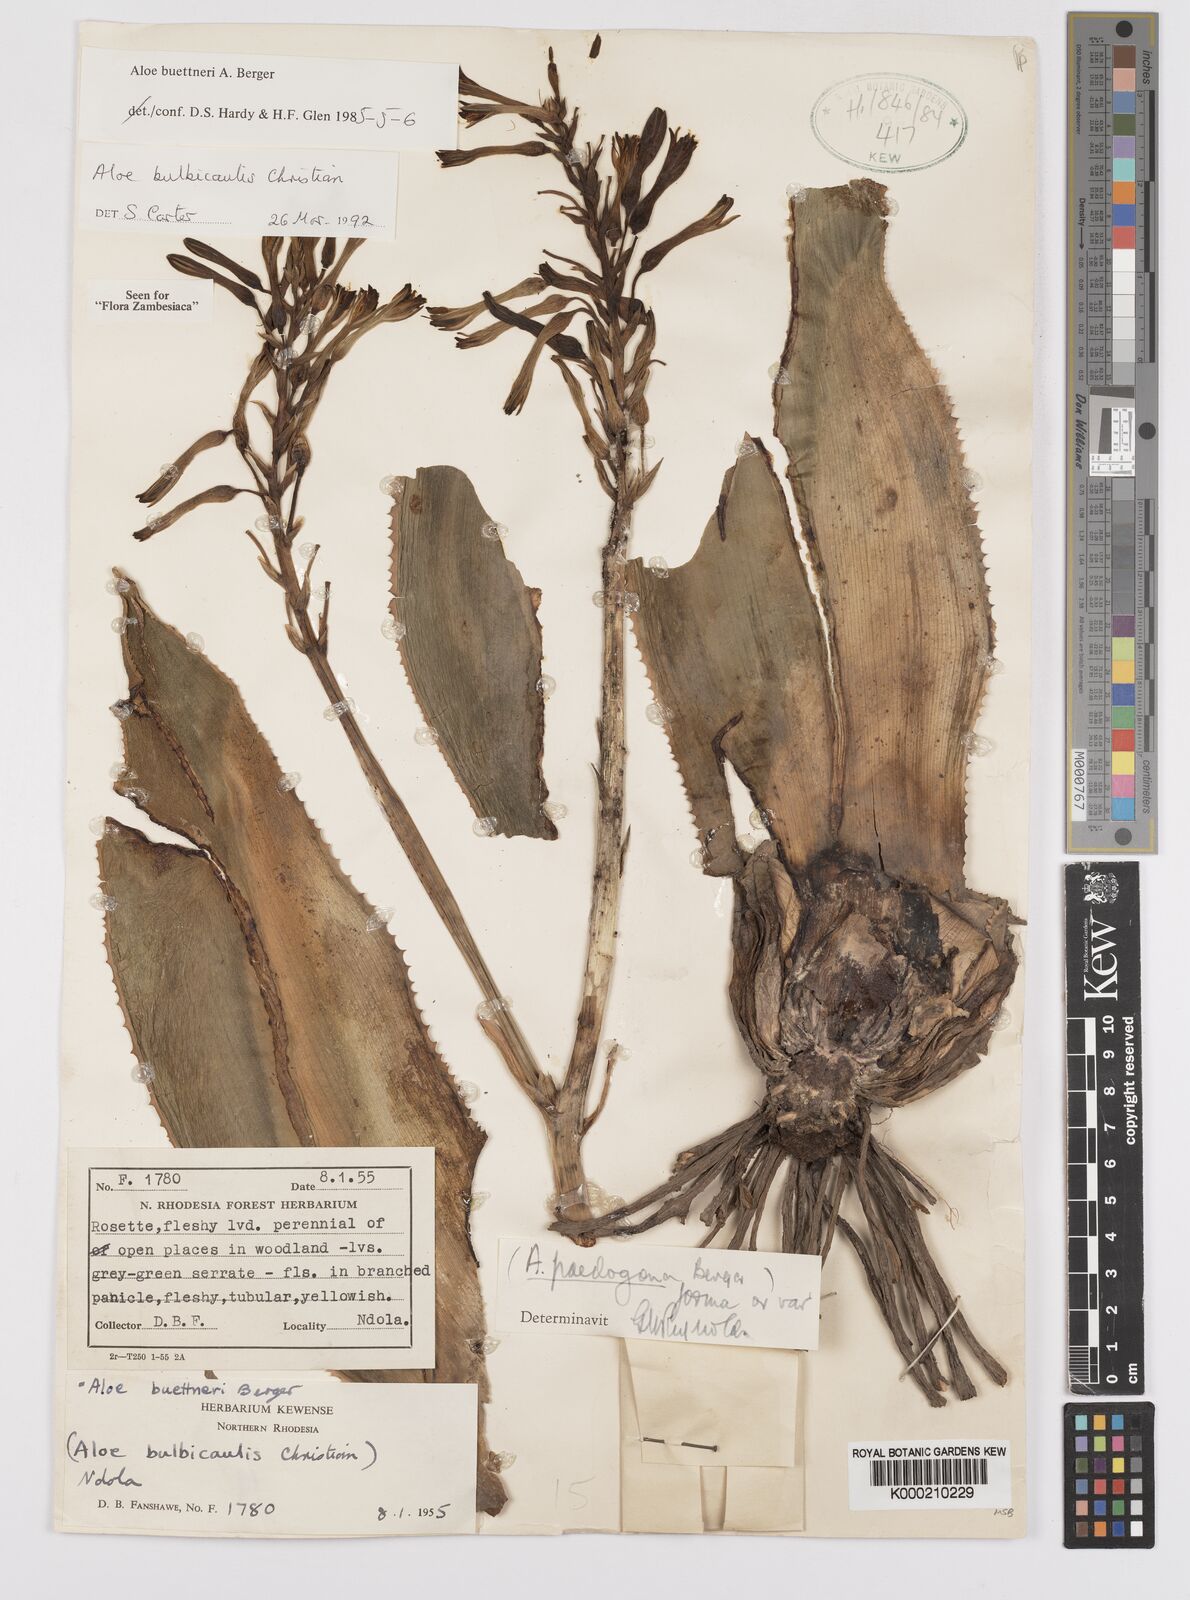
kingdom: Plantae
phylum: Tracheophyta
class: Liliopsida
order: Asparagales
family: Asphodelaceae
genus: Aloe
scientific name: Aloe bulbicaulis
